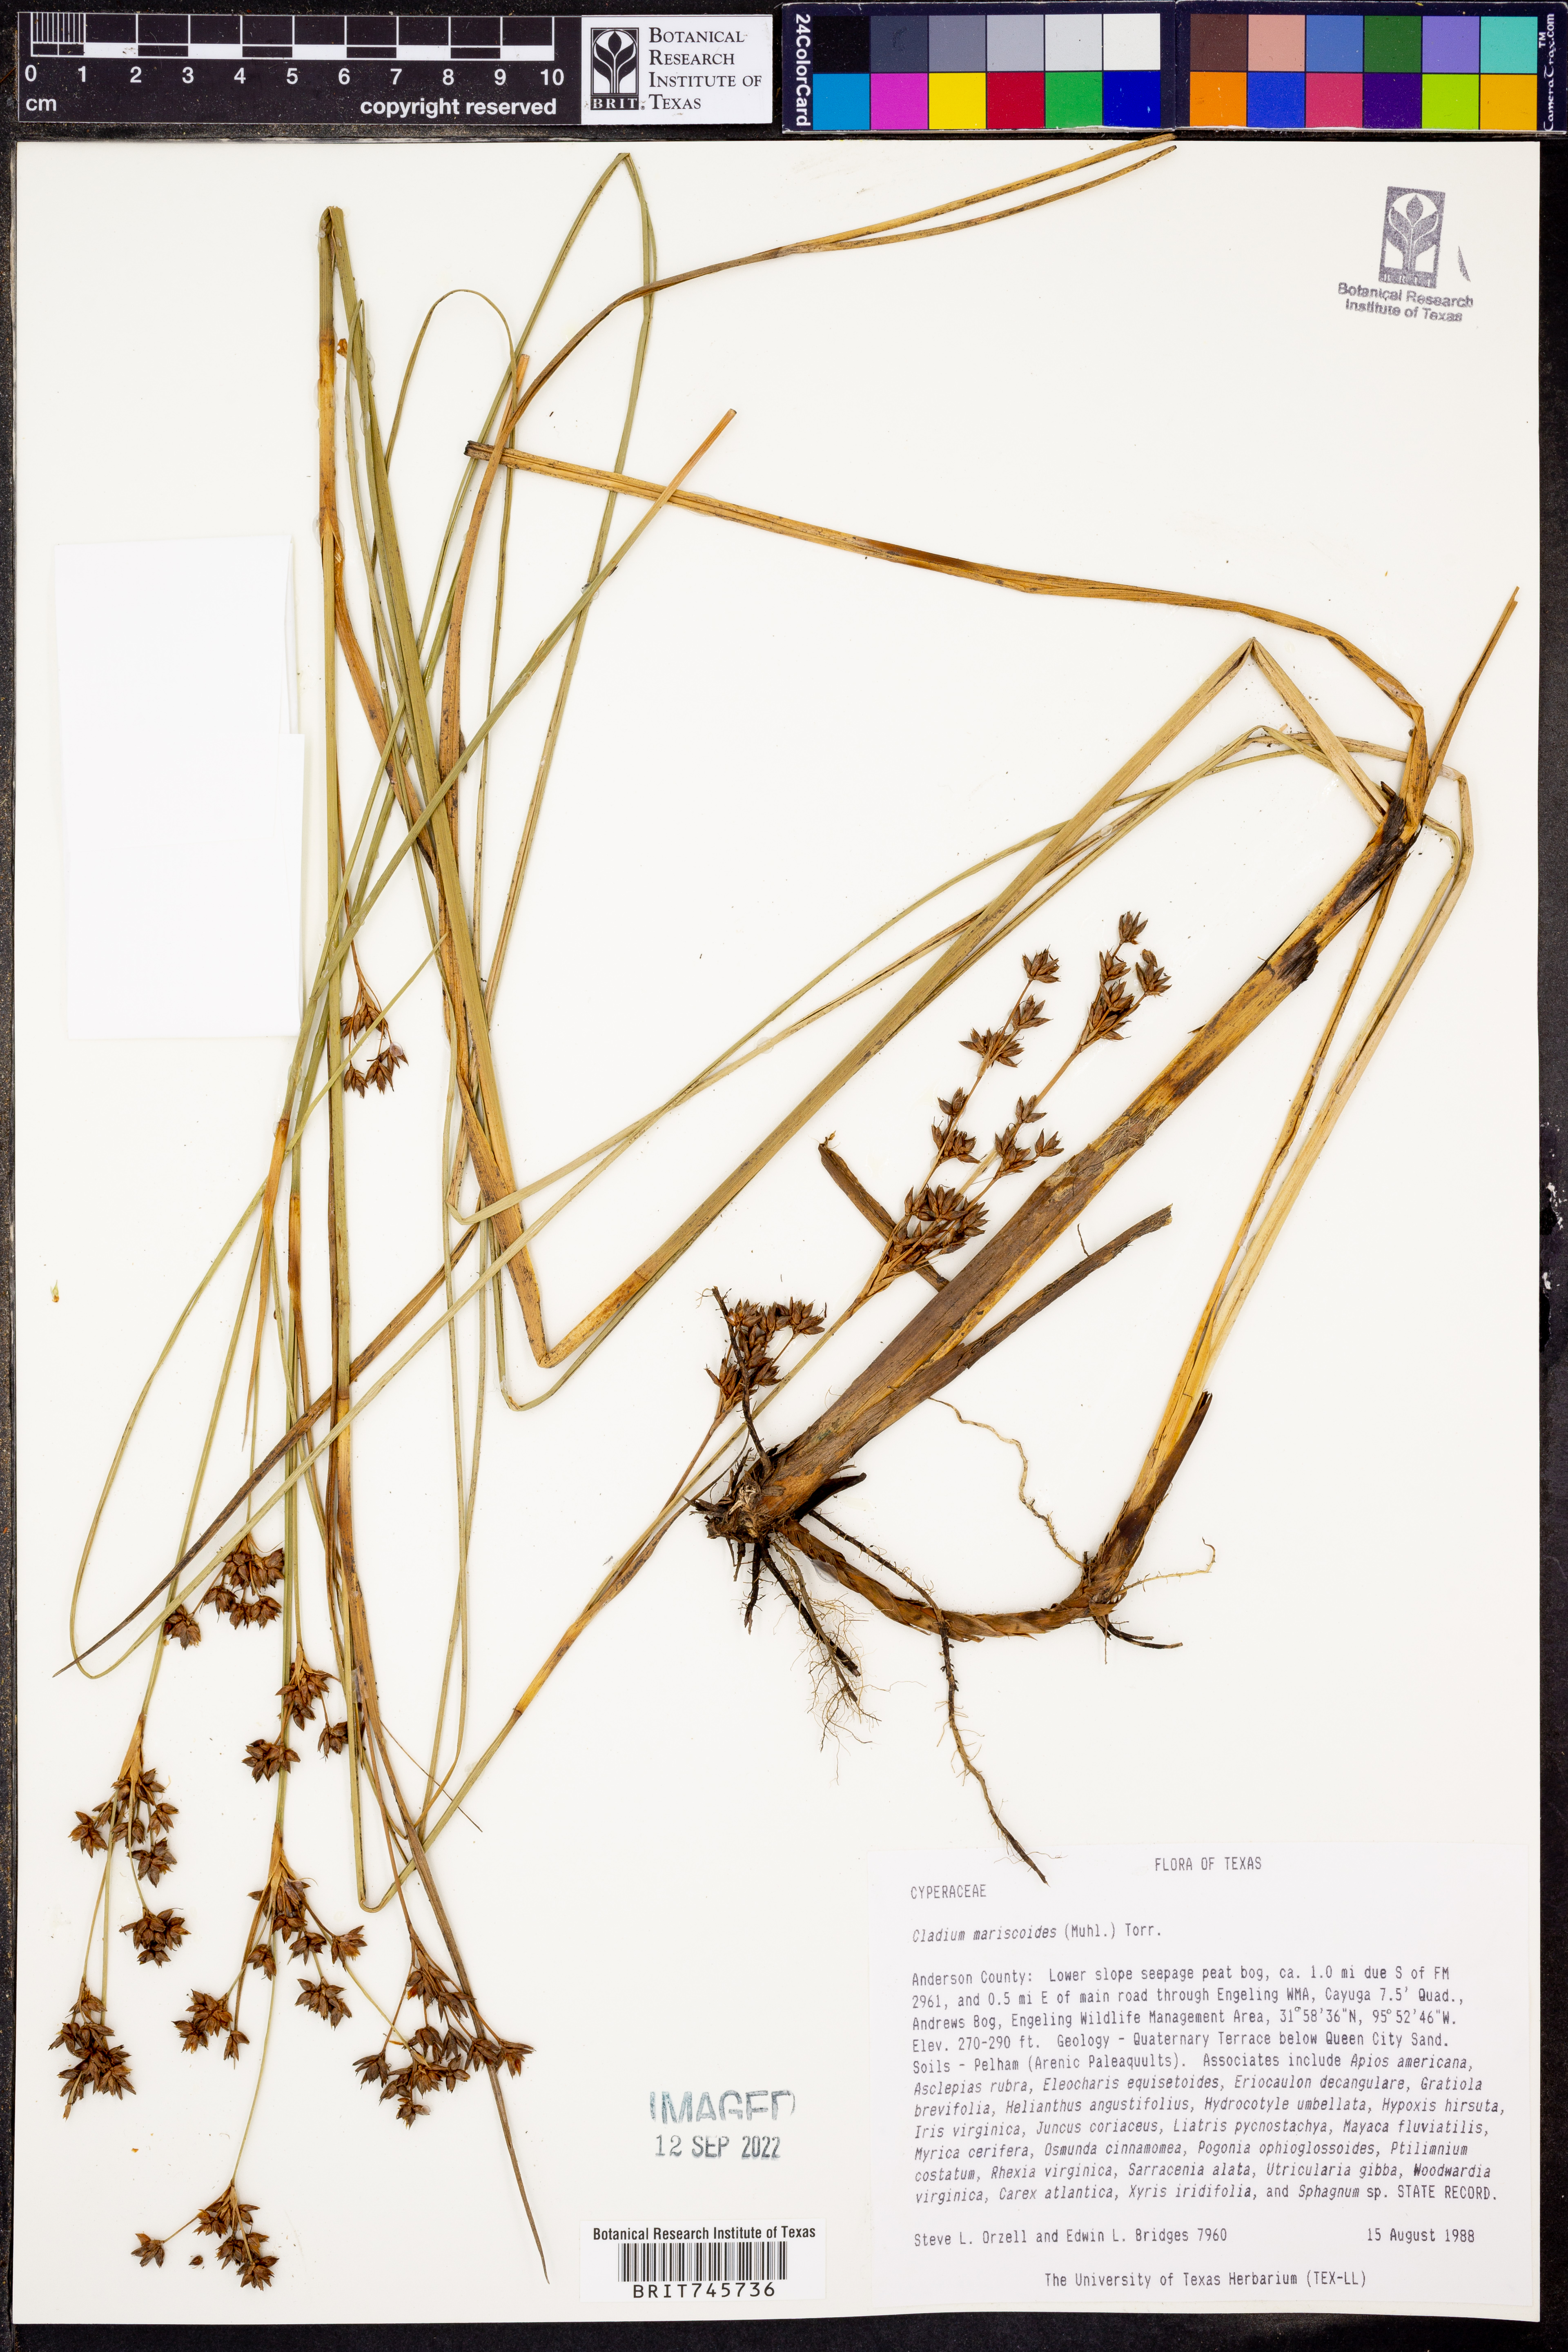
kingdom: Plantae
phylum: Tracheophyta
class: Liliopsida
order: Poales
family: Cyperaceae
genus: Cladium
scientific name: Cladium mariscoides
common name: Smooth sawgrass
